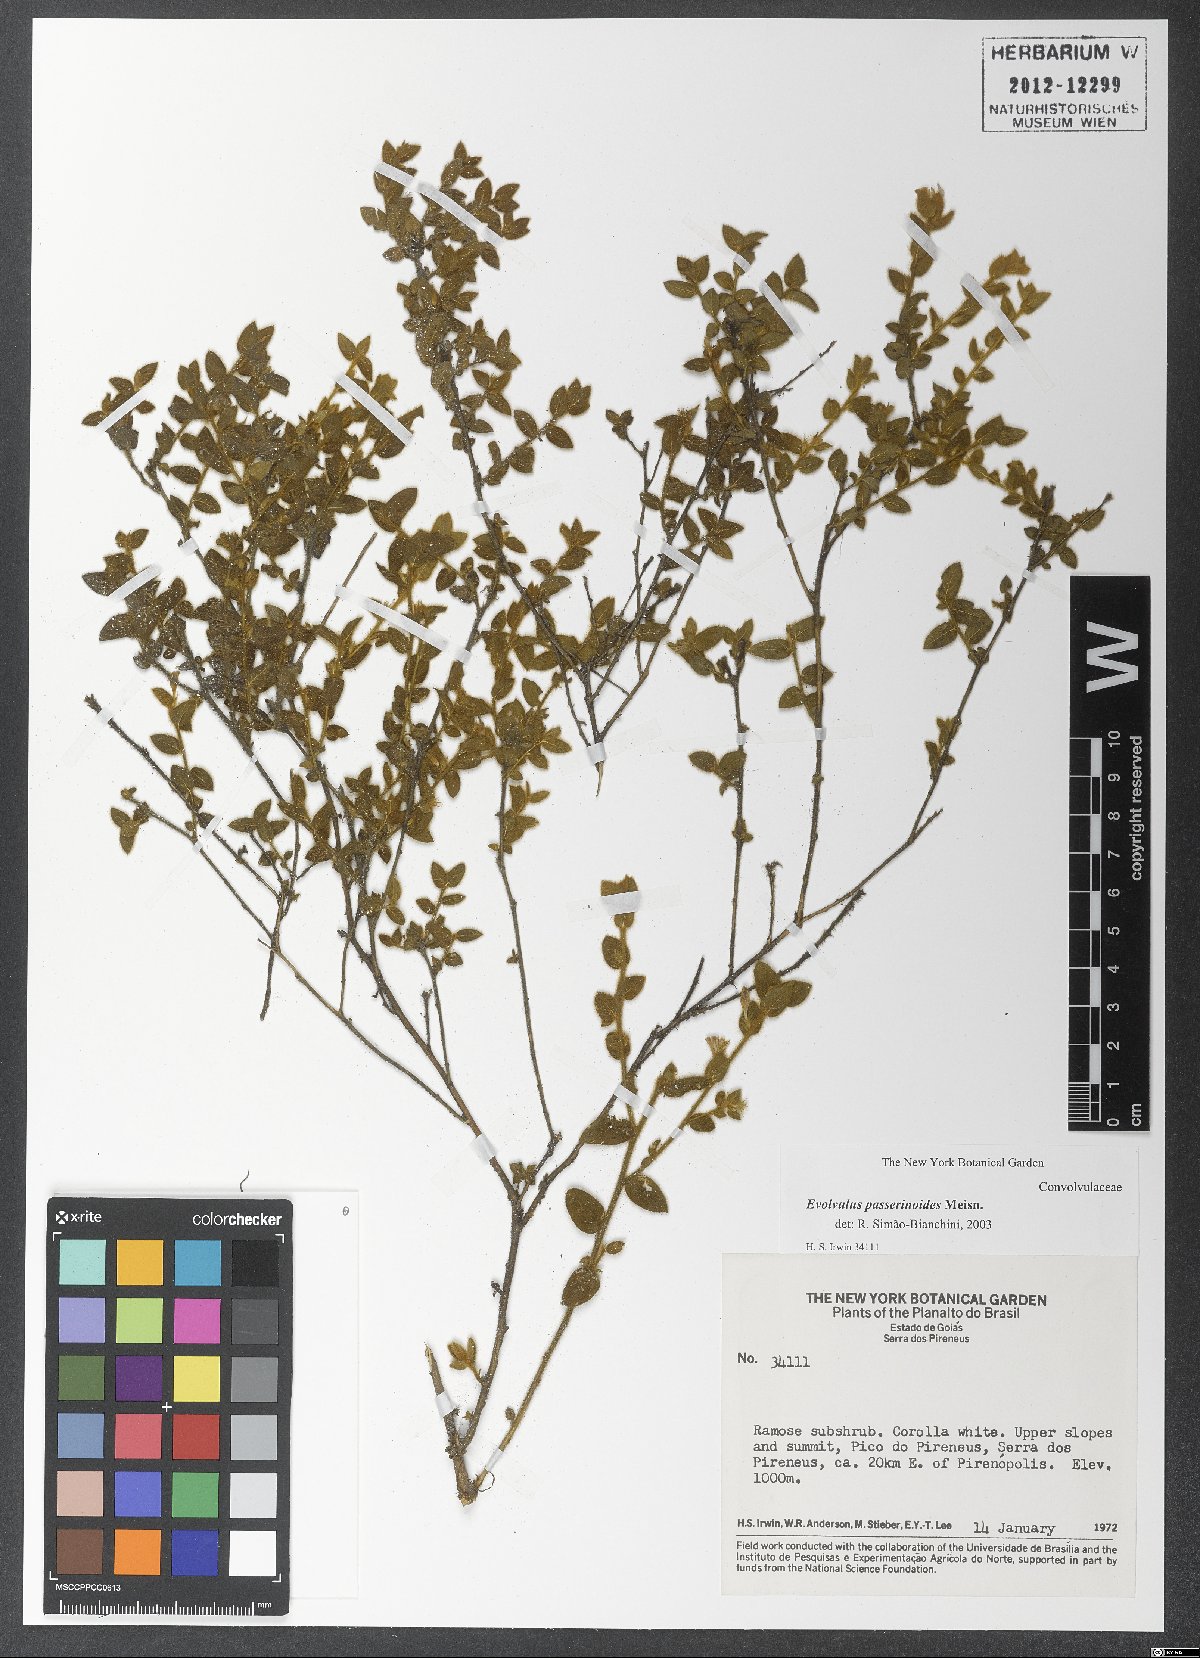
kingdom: Plantae
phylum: Tracheophyta
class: Magnoliopsida
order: Solanales
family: Convolvulaceae
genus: Evolvulus
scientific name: Evolvulus passerinoides
